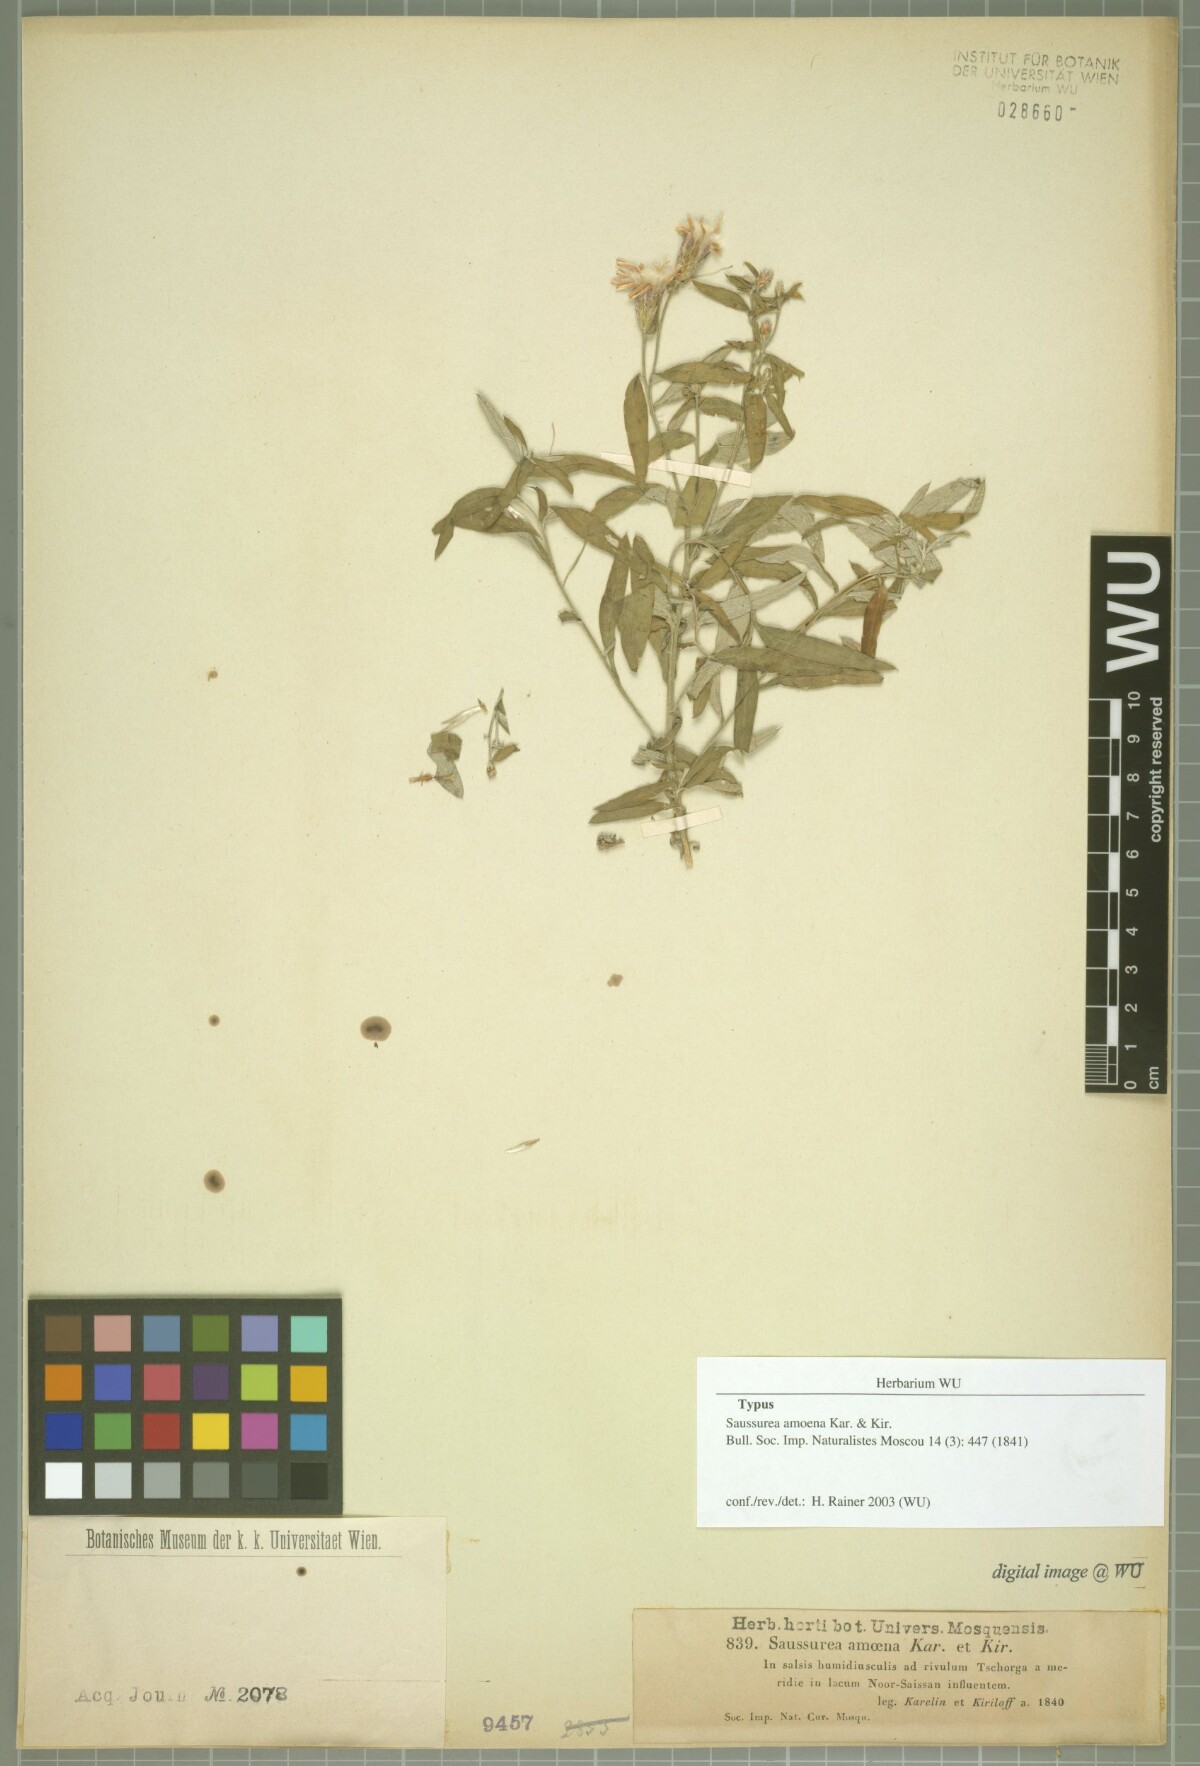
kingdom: Plantae
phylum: Tracheophyta
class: Magnoliopsida
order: Asterales
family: Asteraceae
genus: Saussurea
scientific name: Saussurea elegans
